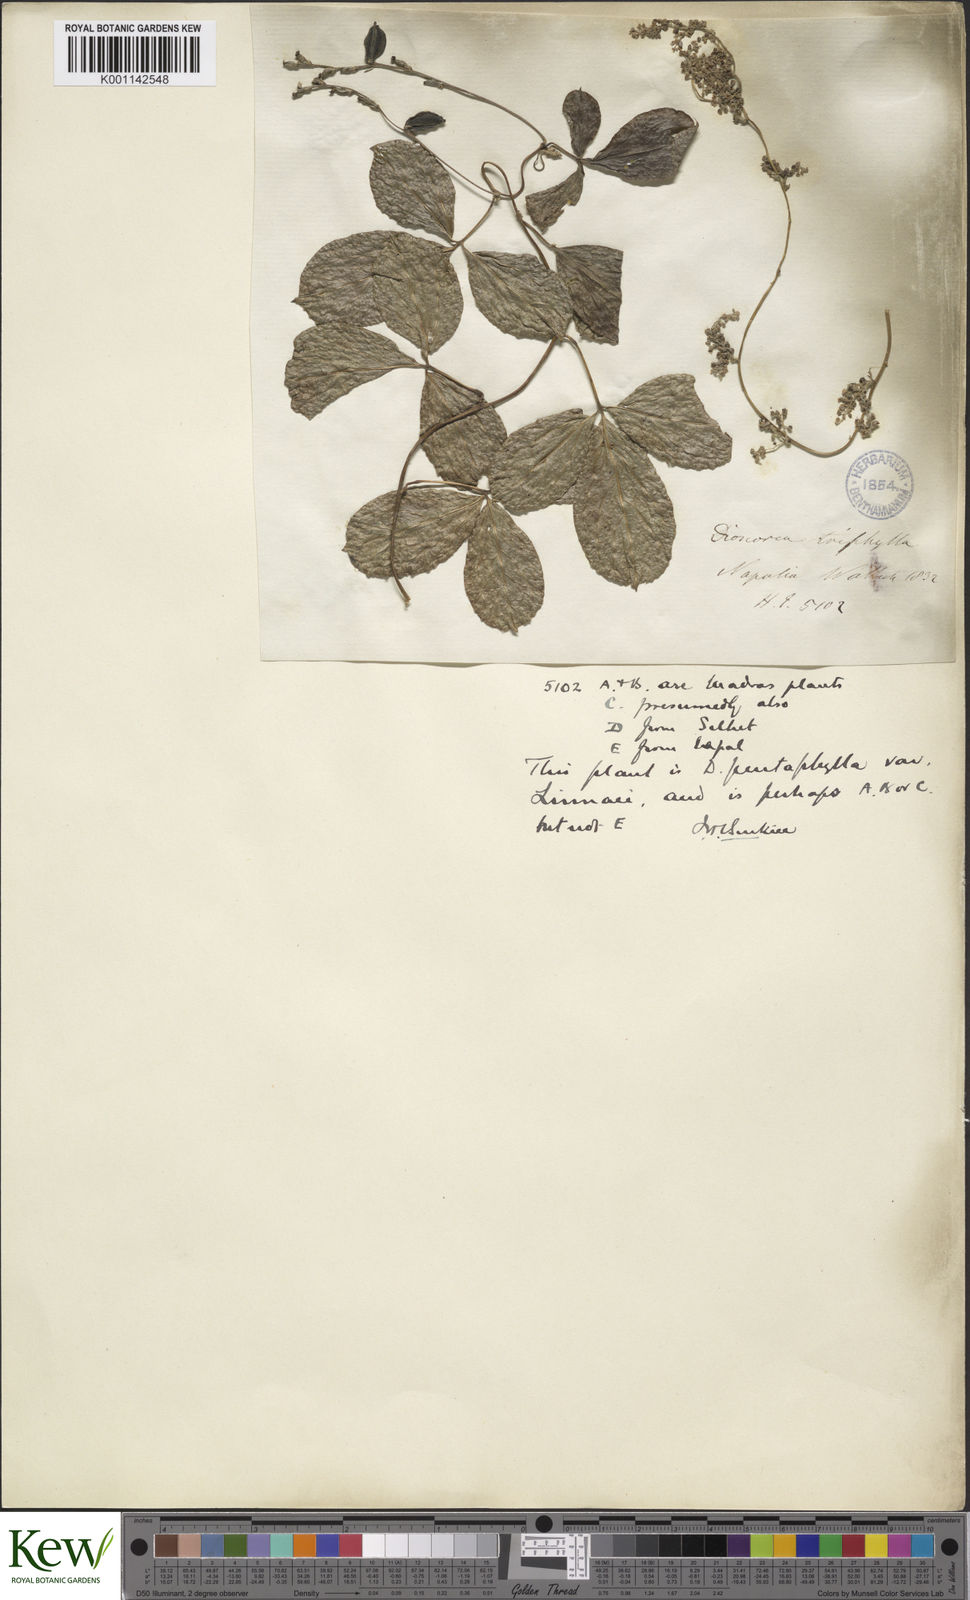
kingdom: Plantae
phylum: Tracheophyta
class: Liliopsida
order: Dioscoreales
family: Dioscoreaceae
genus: Dioscorea
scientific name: Dioscorea pentaphylla
